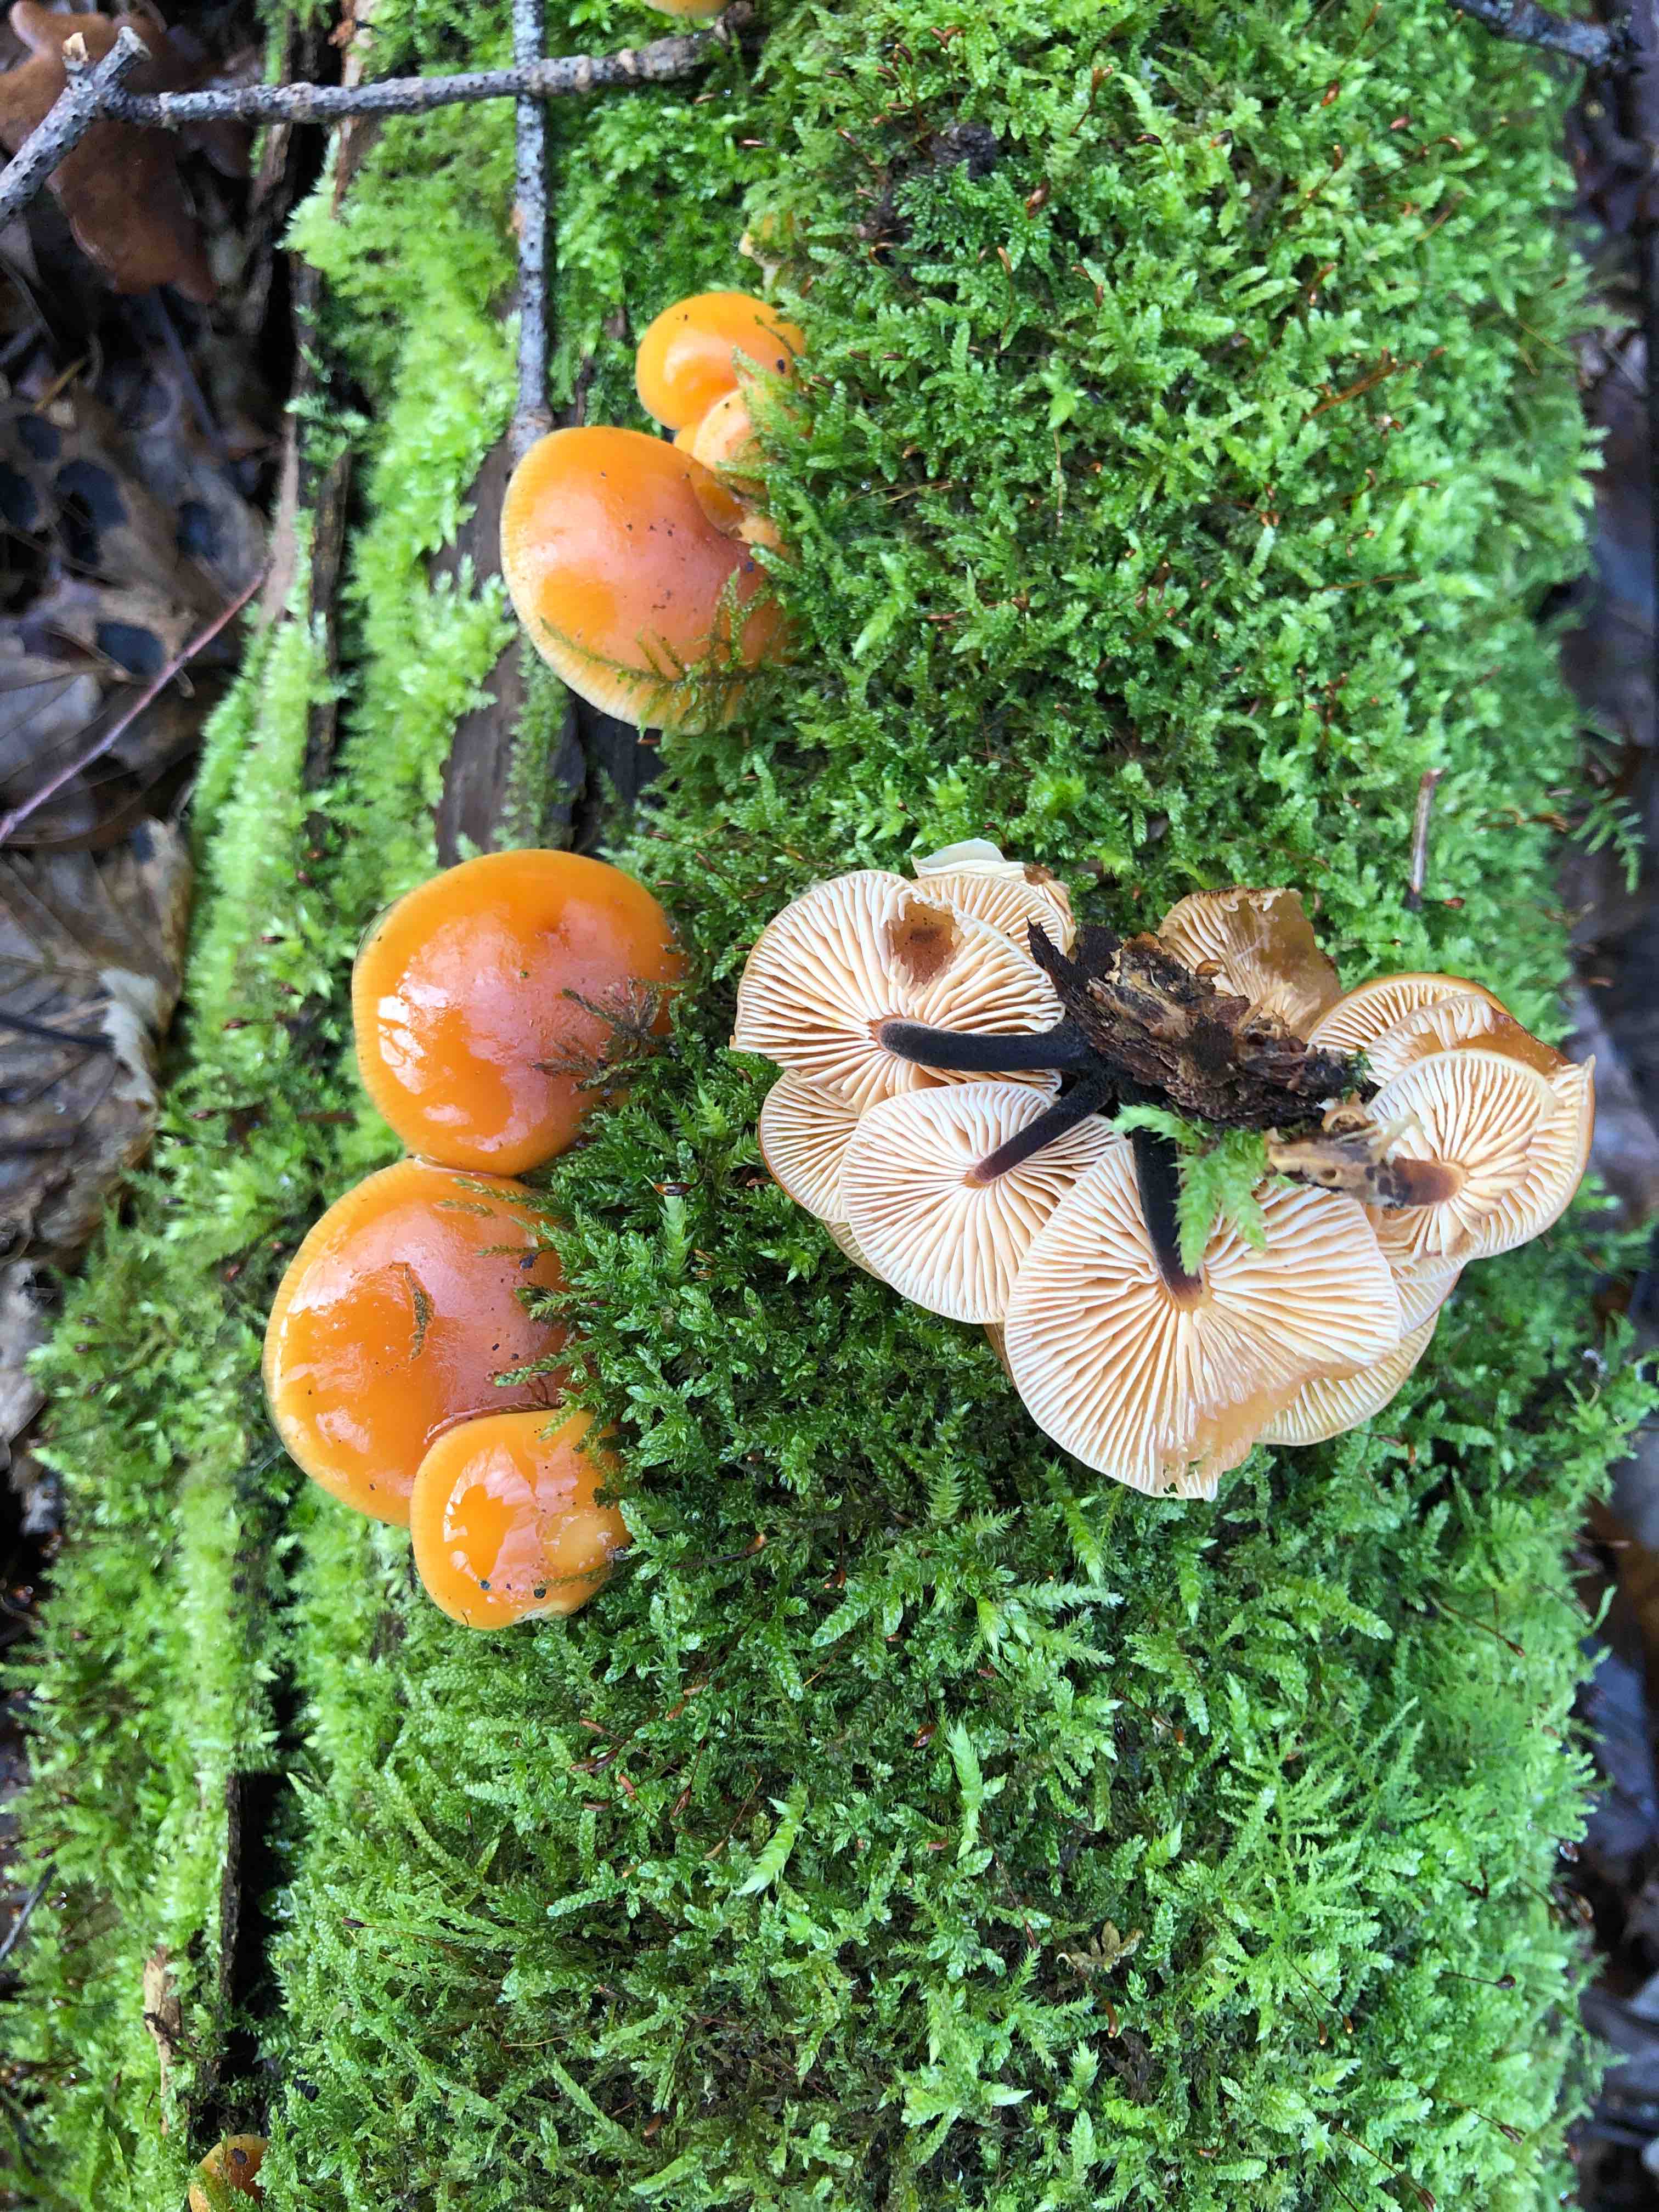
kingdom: Fungi
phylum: Basidiomycota
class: Agaricomycetes
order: Agaricales
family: Physalacriaceae
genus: Flammulina
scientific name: Flammulina velutipes
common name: gul fløjlsfod
